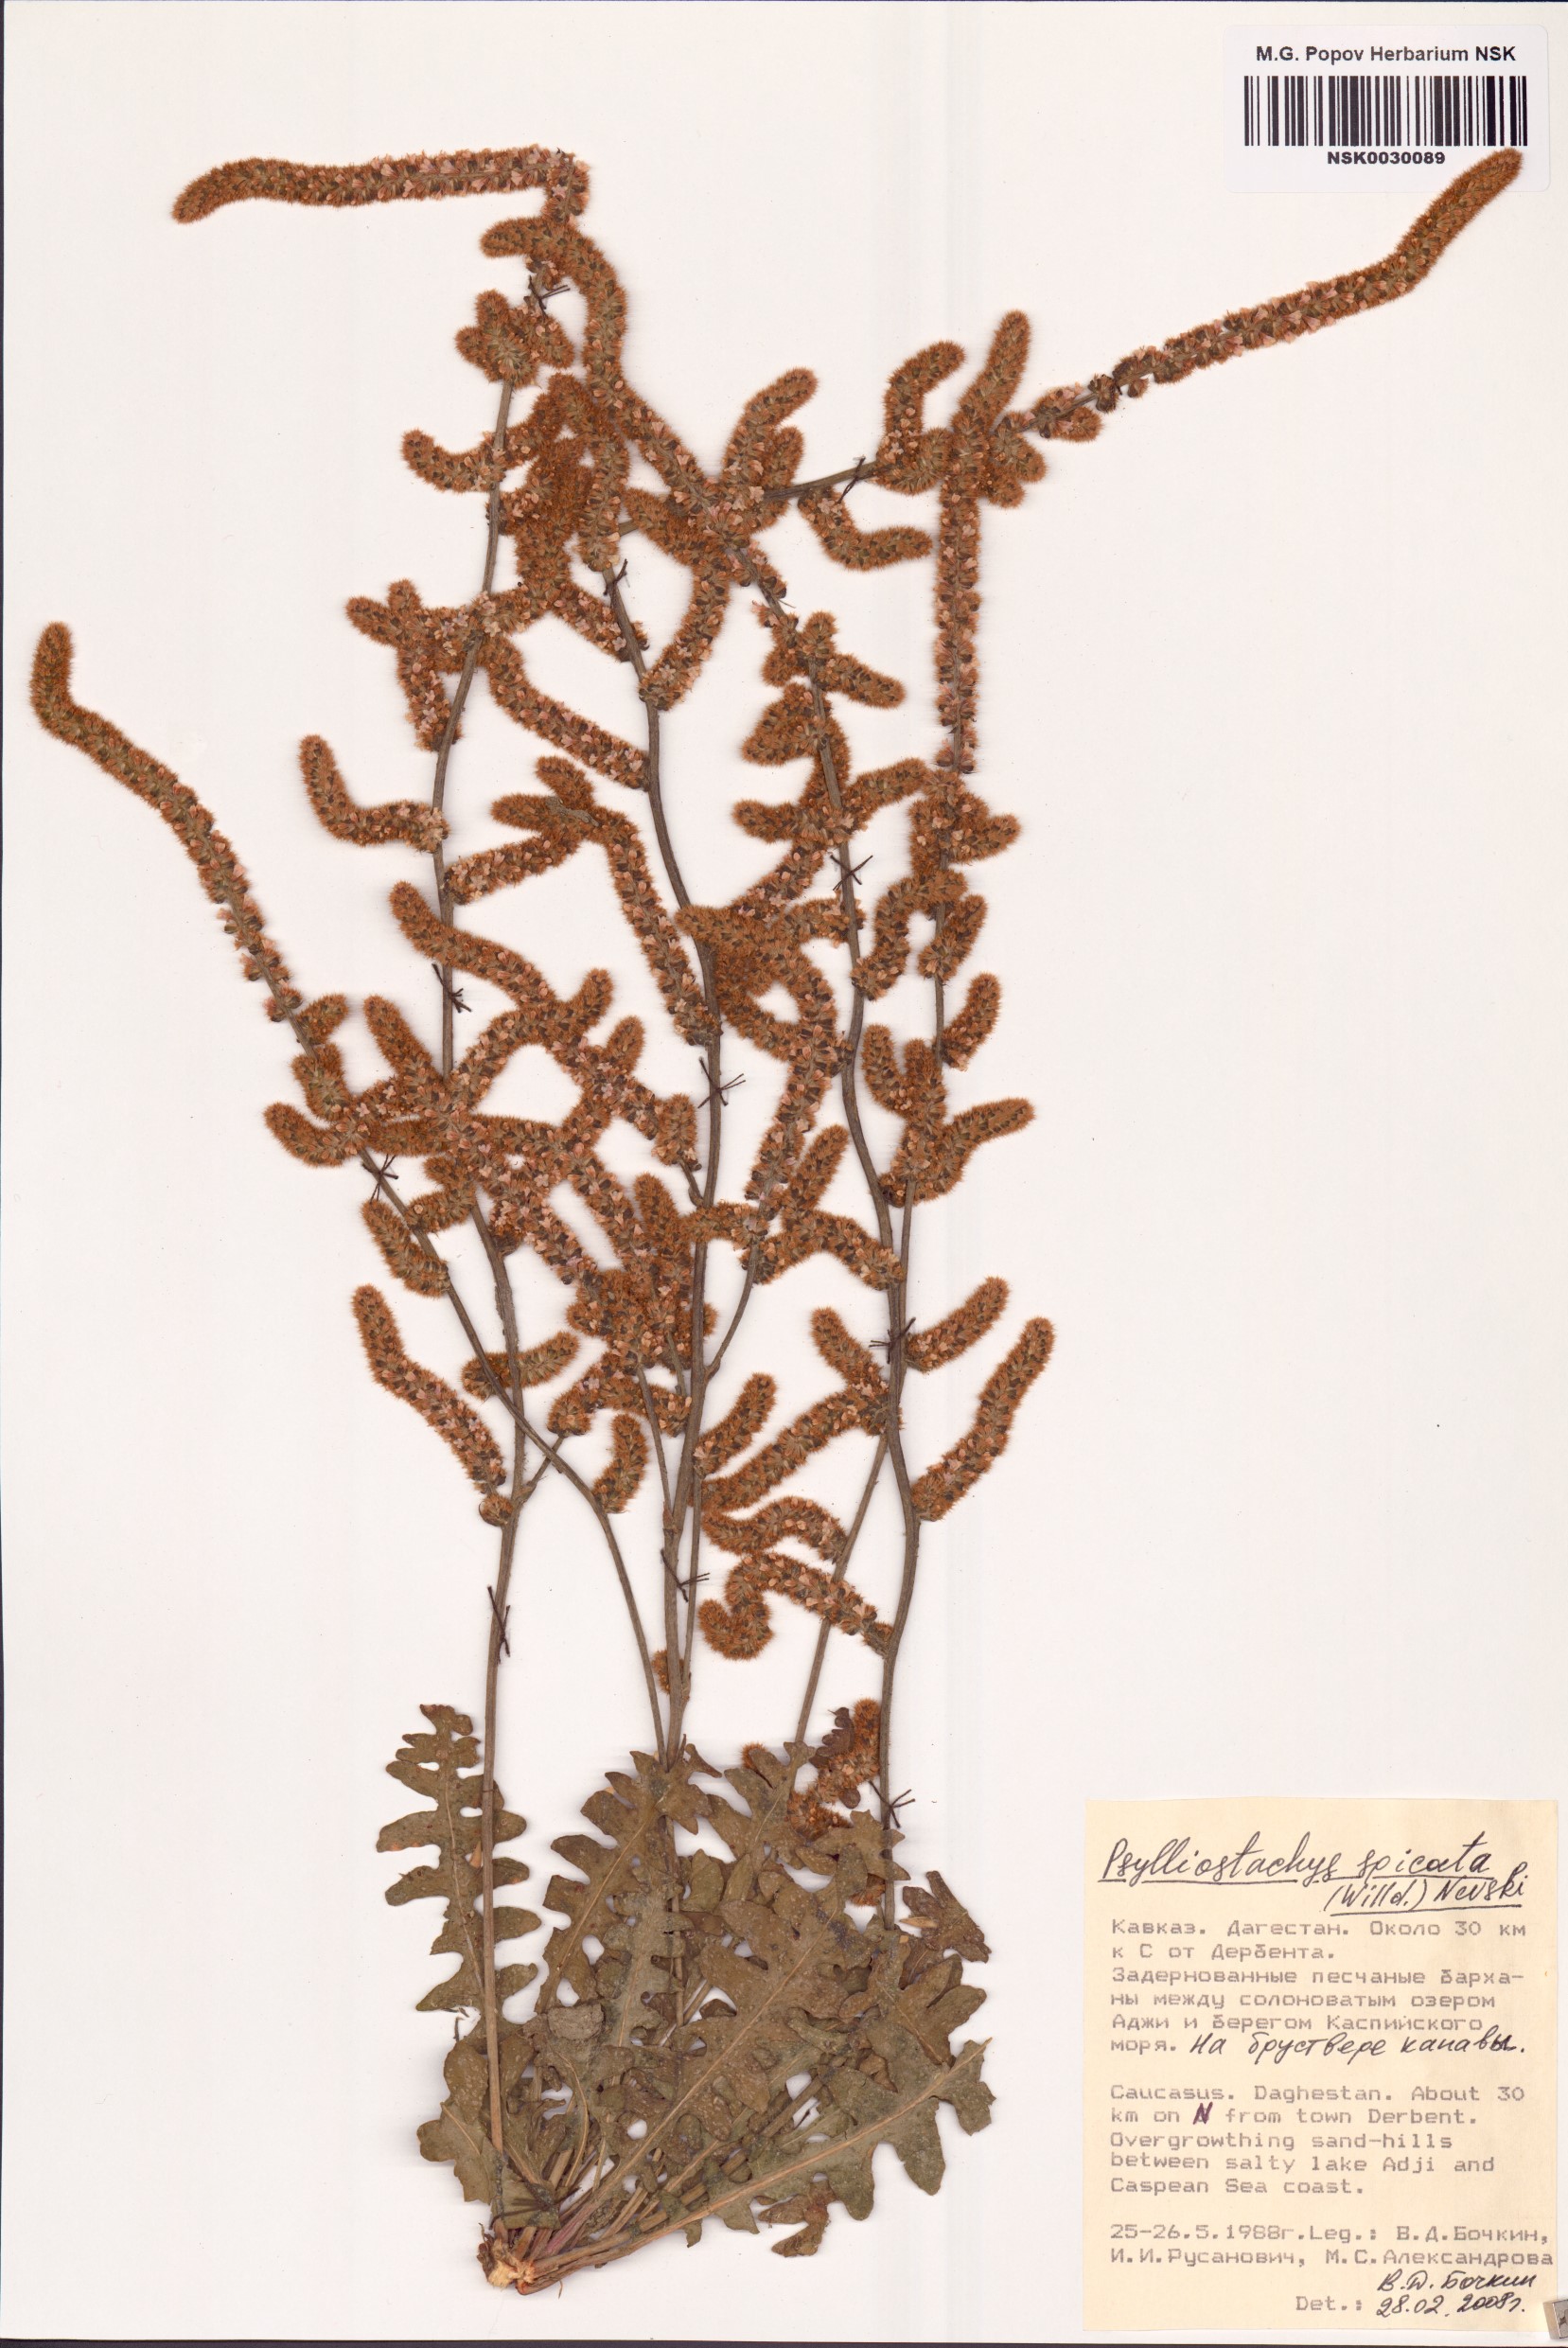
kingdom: Plantae
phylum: Tracheophyta
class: Magnoliopsida
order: Caryophyllales
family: Plumbaginaceae
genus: Psylliostachys
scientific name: Psylliostachys spicatus
